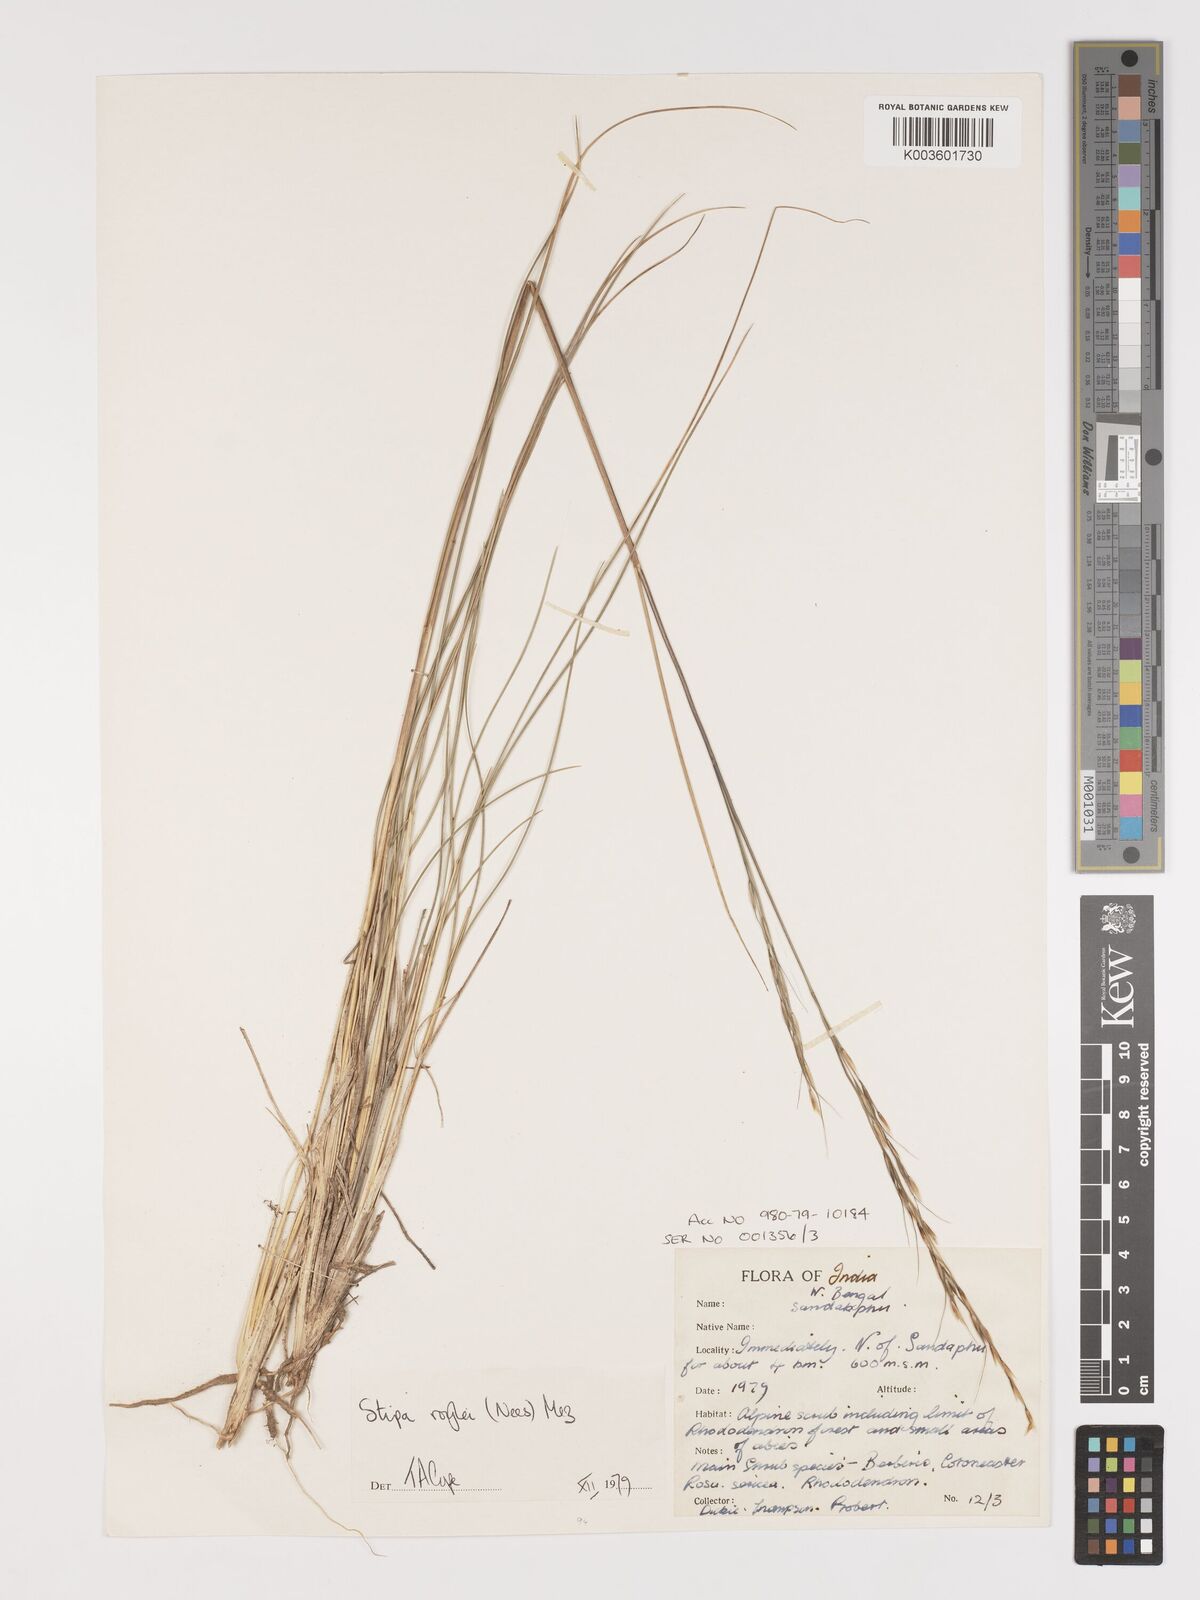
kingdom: Plantae
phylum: Tracheophyta
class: Liliopsida
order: Poales
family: Poaceae
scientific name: Poaceae
